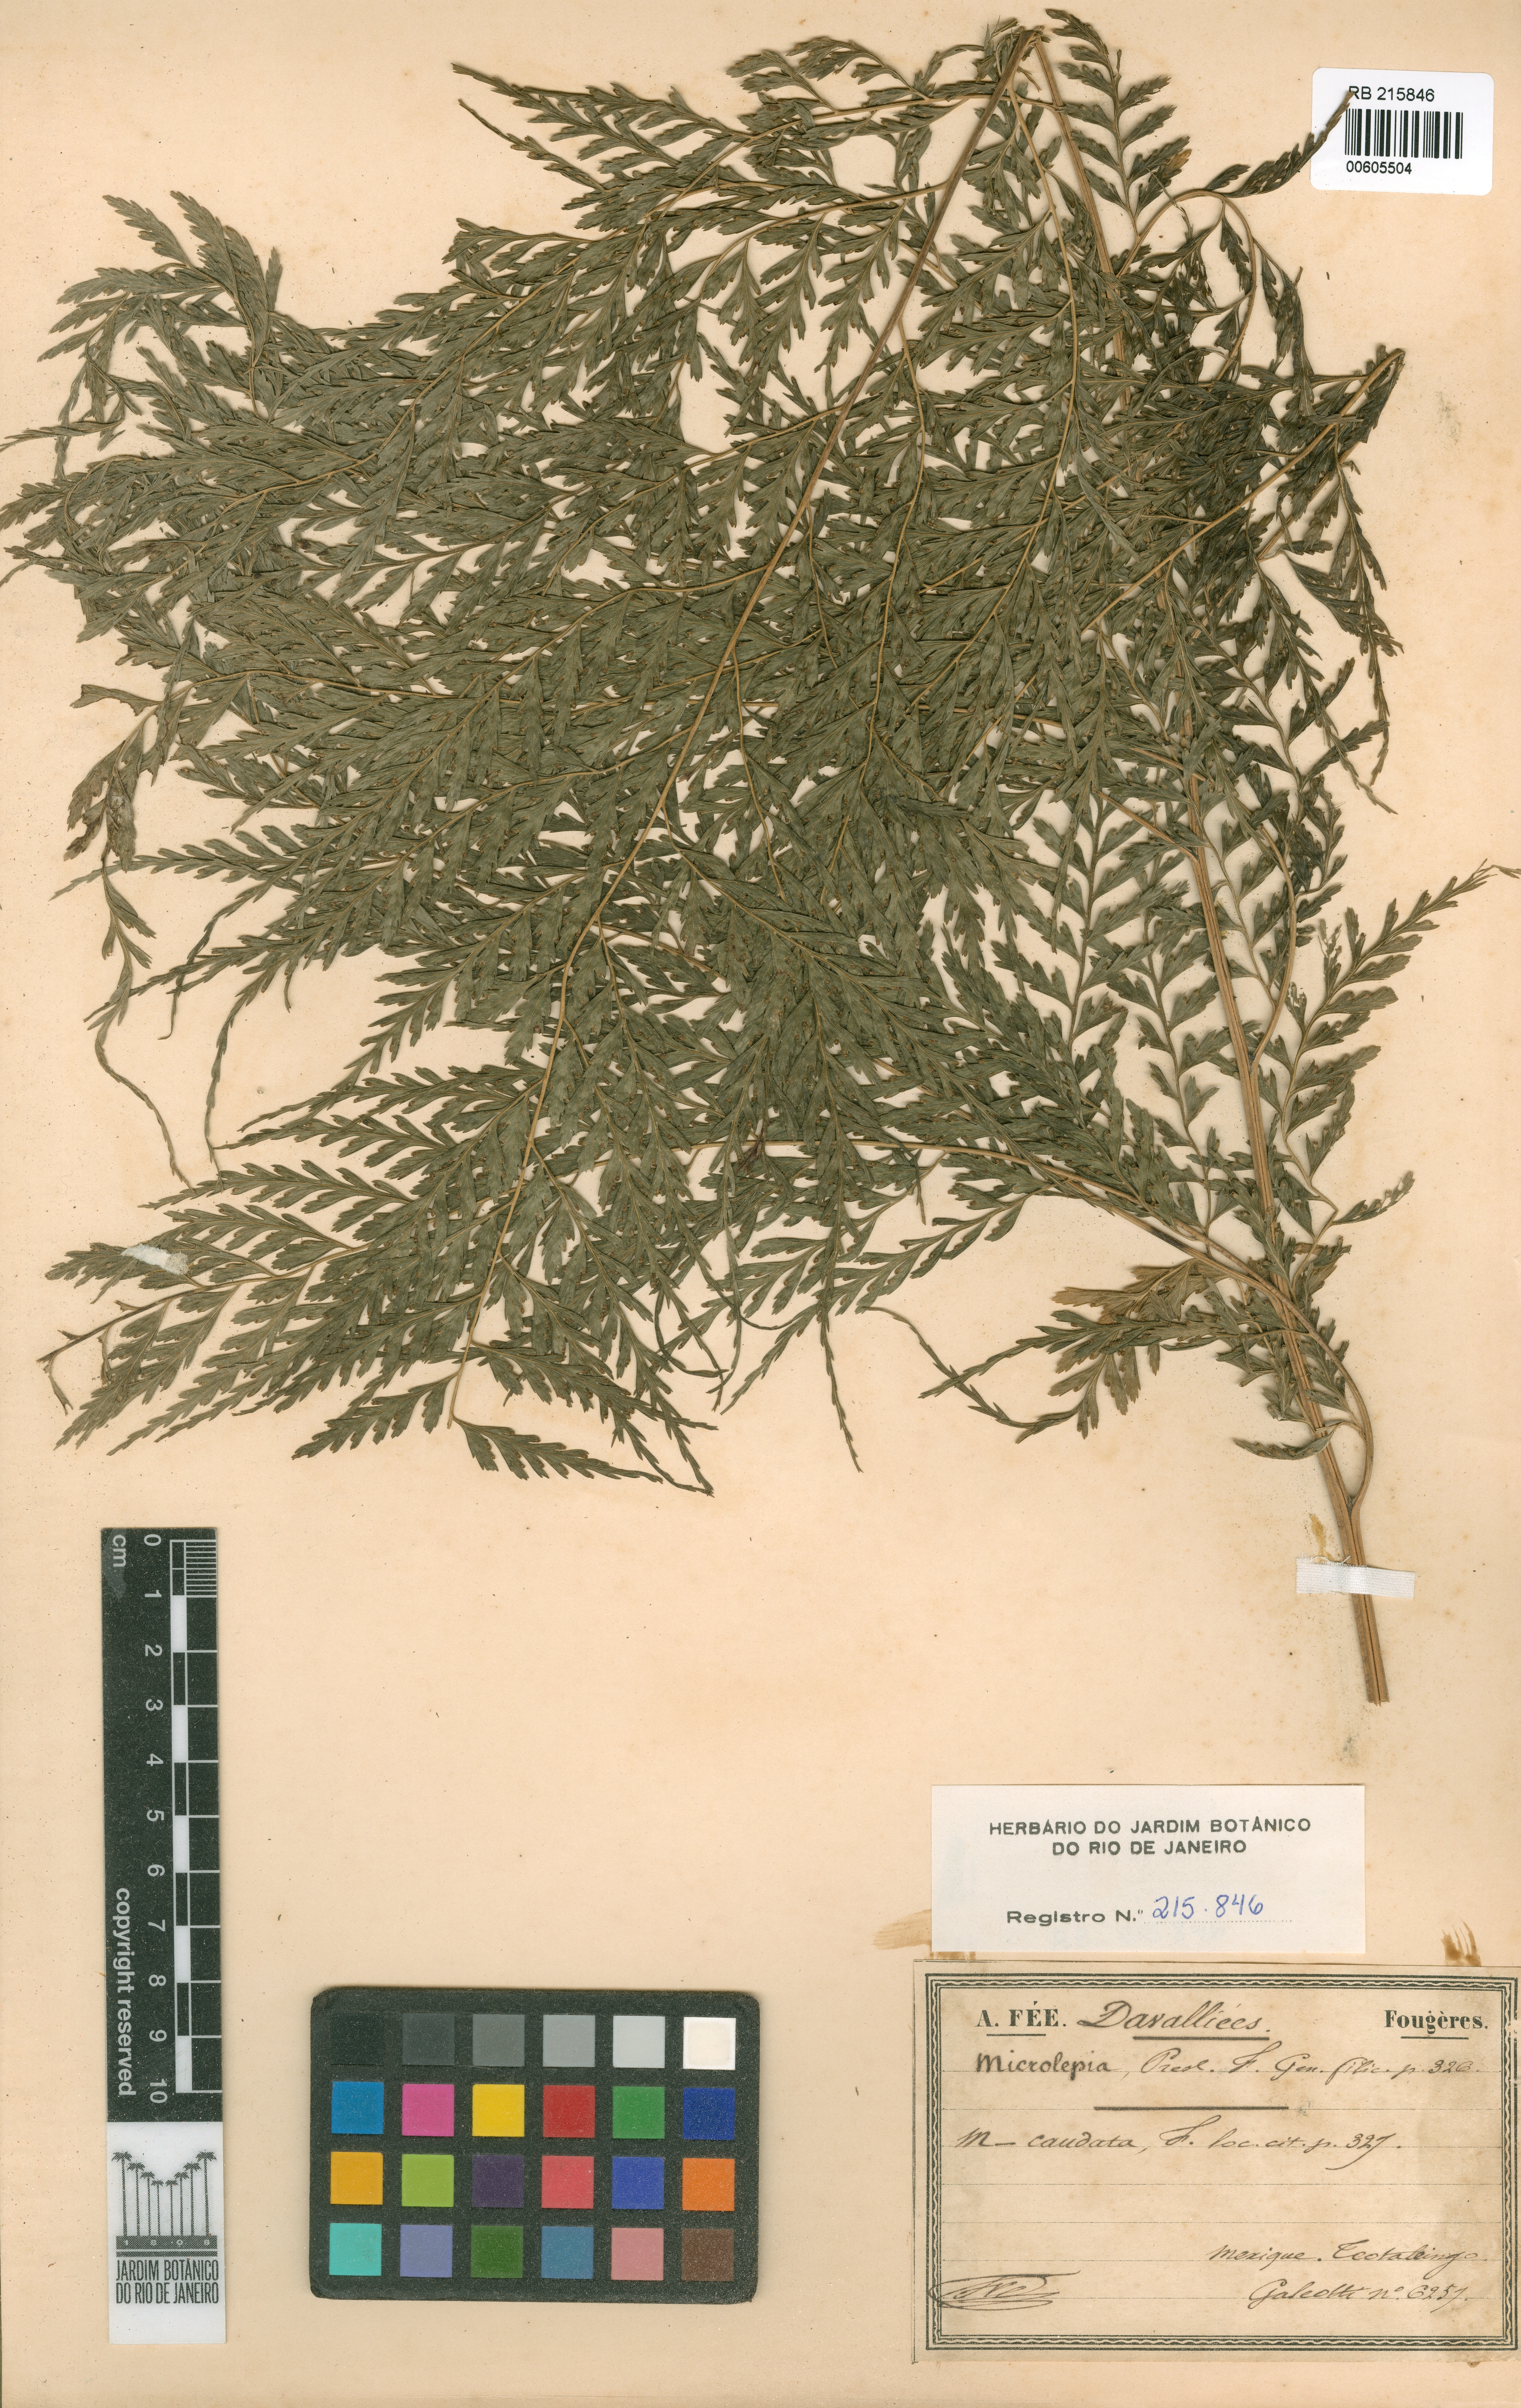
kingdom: Plantae
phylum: Tracheophyta
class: Polypodiopsida
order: Polypodiales
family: Saccolomataceae
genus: Saccoloma
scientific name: Saccoloma inaequale
